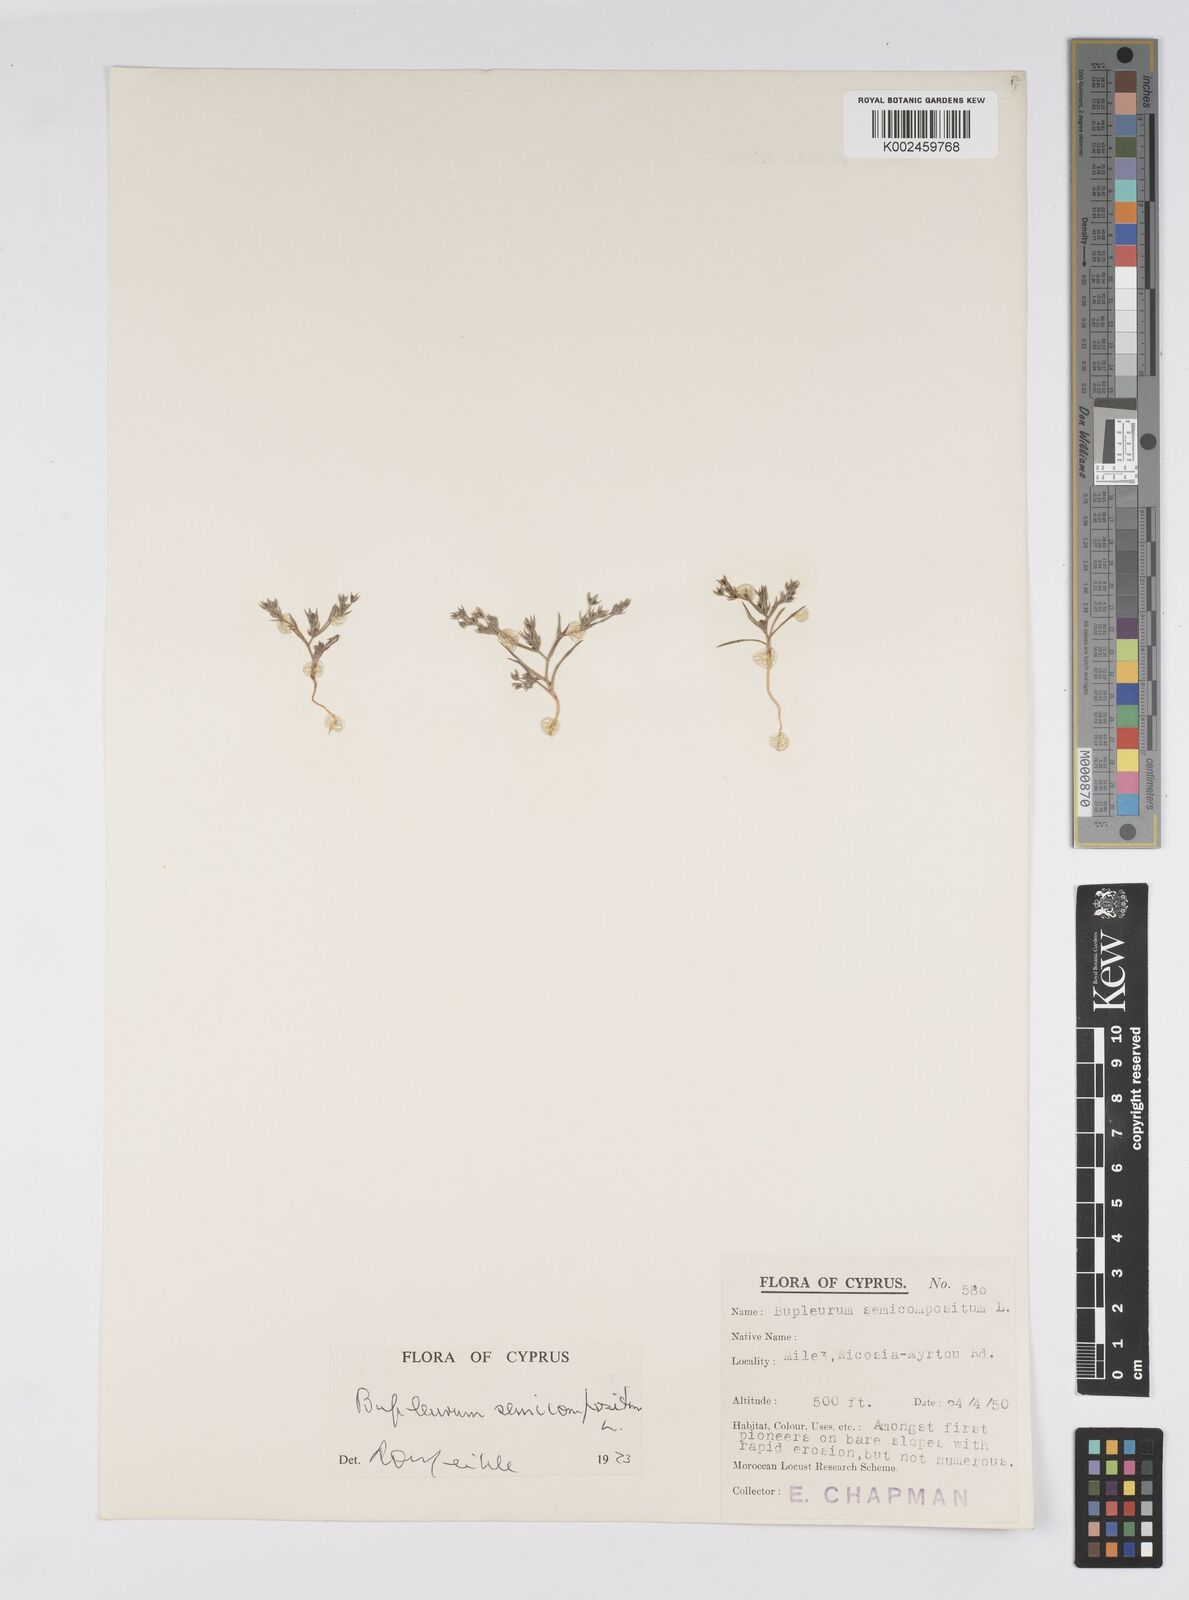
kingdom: Plantae
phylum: Tracheophyta
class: Magnoliopsida
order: Apiales
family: Apiaceae
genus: Bupleurum
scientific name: Bupleurum semicompositum
